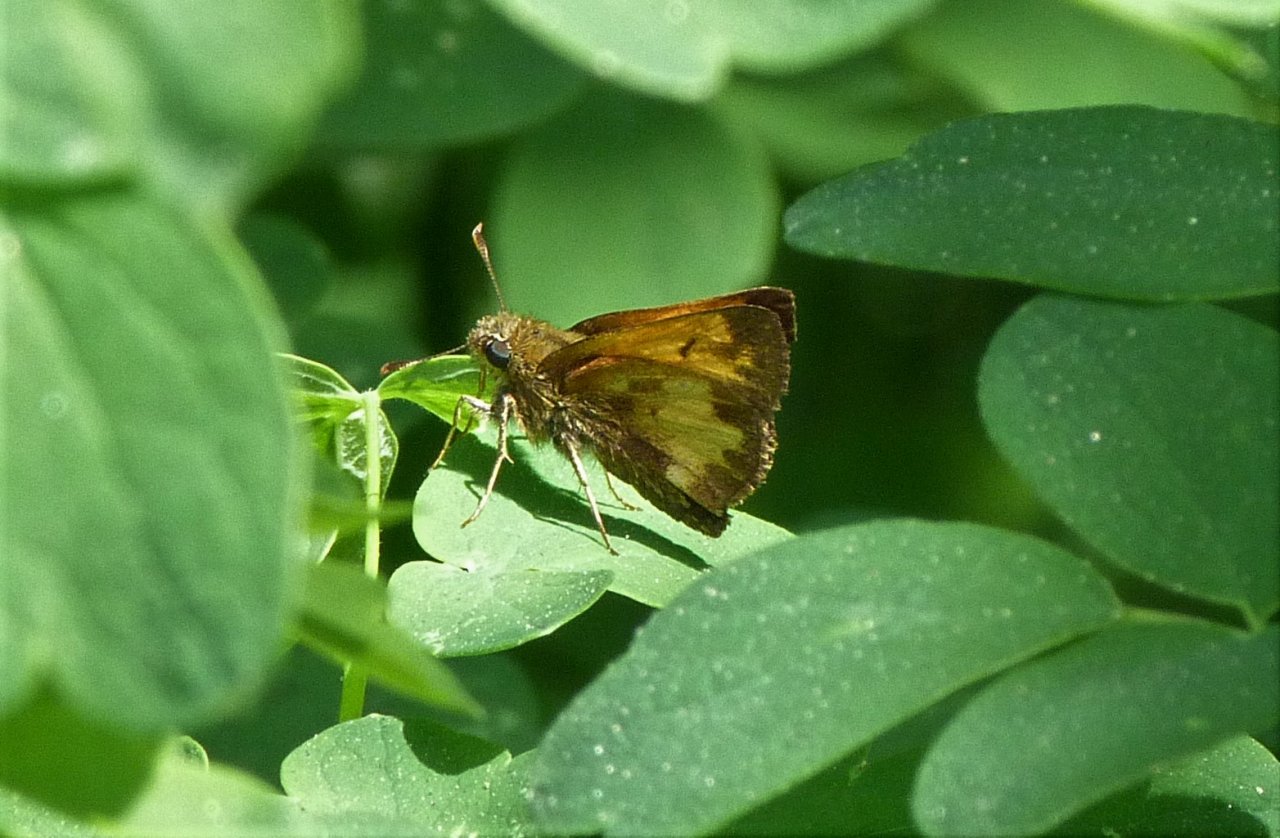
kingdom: Animalia
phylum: Arthropoda
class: Insecta
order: Lepidoptera
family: Hesperiidae
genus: Lon
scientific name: Lon hobomok
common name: Hobomok Skipper
